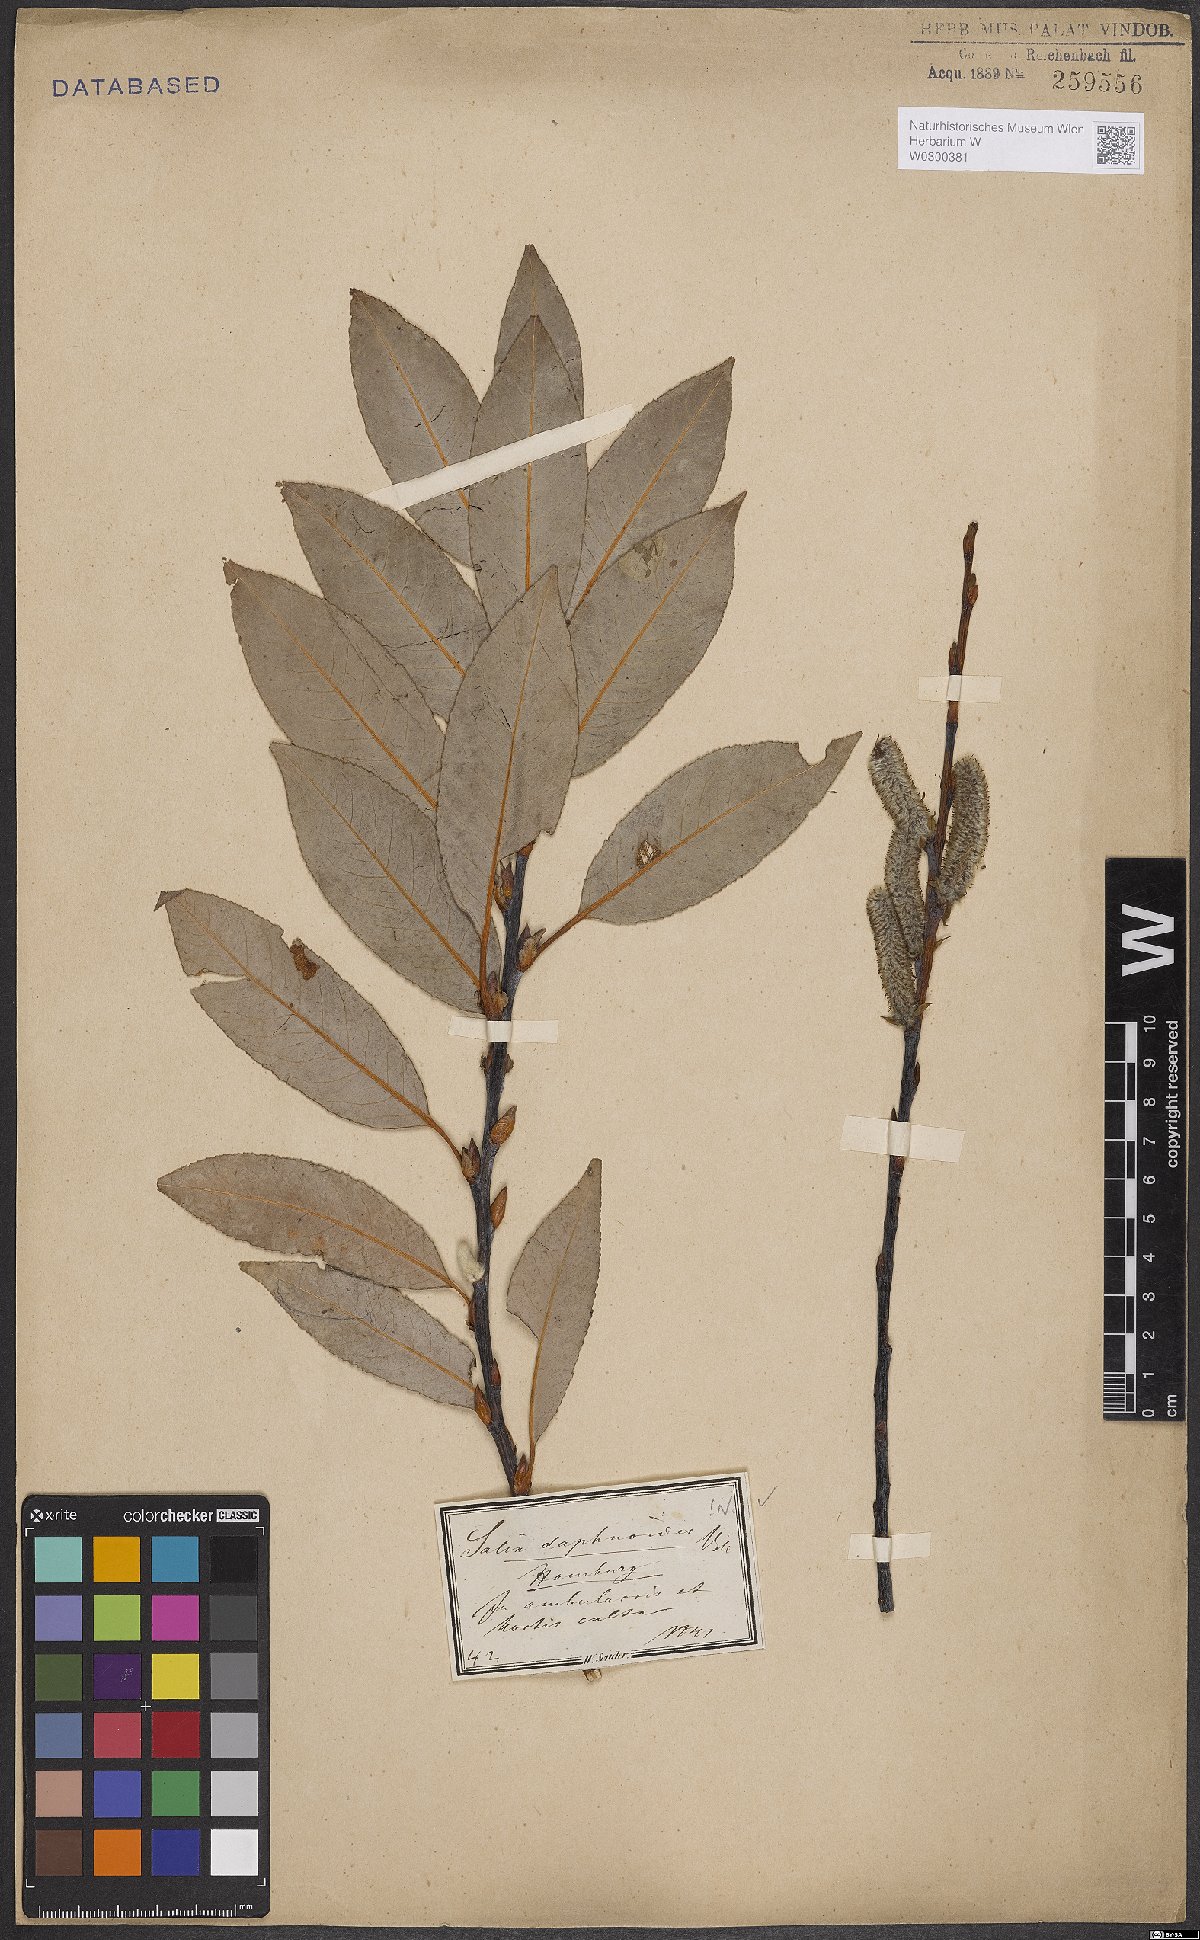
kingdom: Plantae
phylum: Tracheophyta
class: Magnoliopsida
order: Malpighiales
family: Salicaceae
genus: Salix
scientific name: Salix daphnoides
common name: European violet-willow
